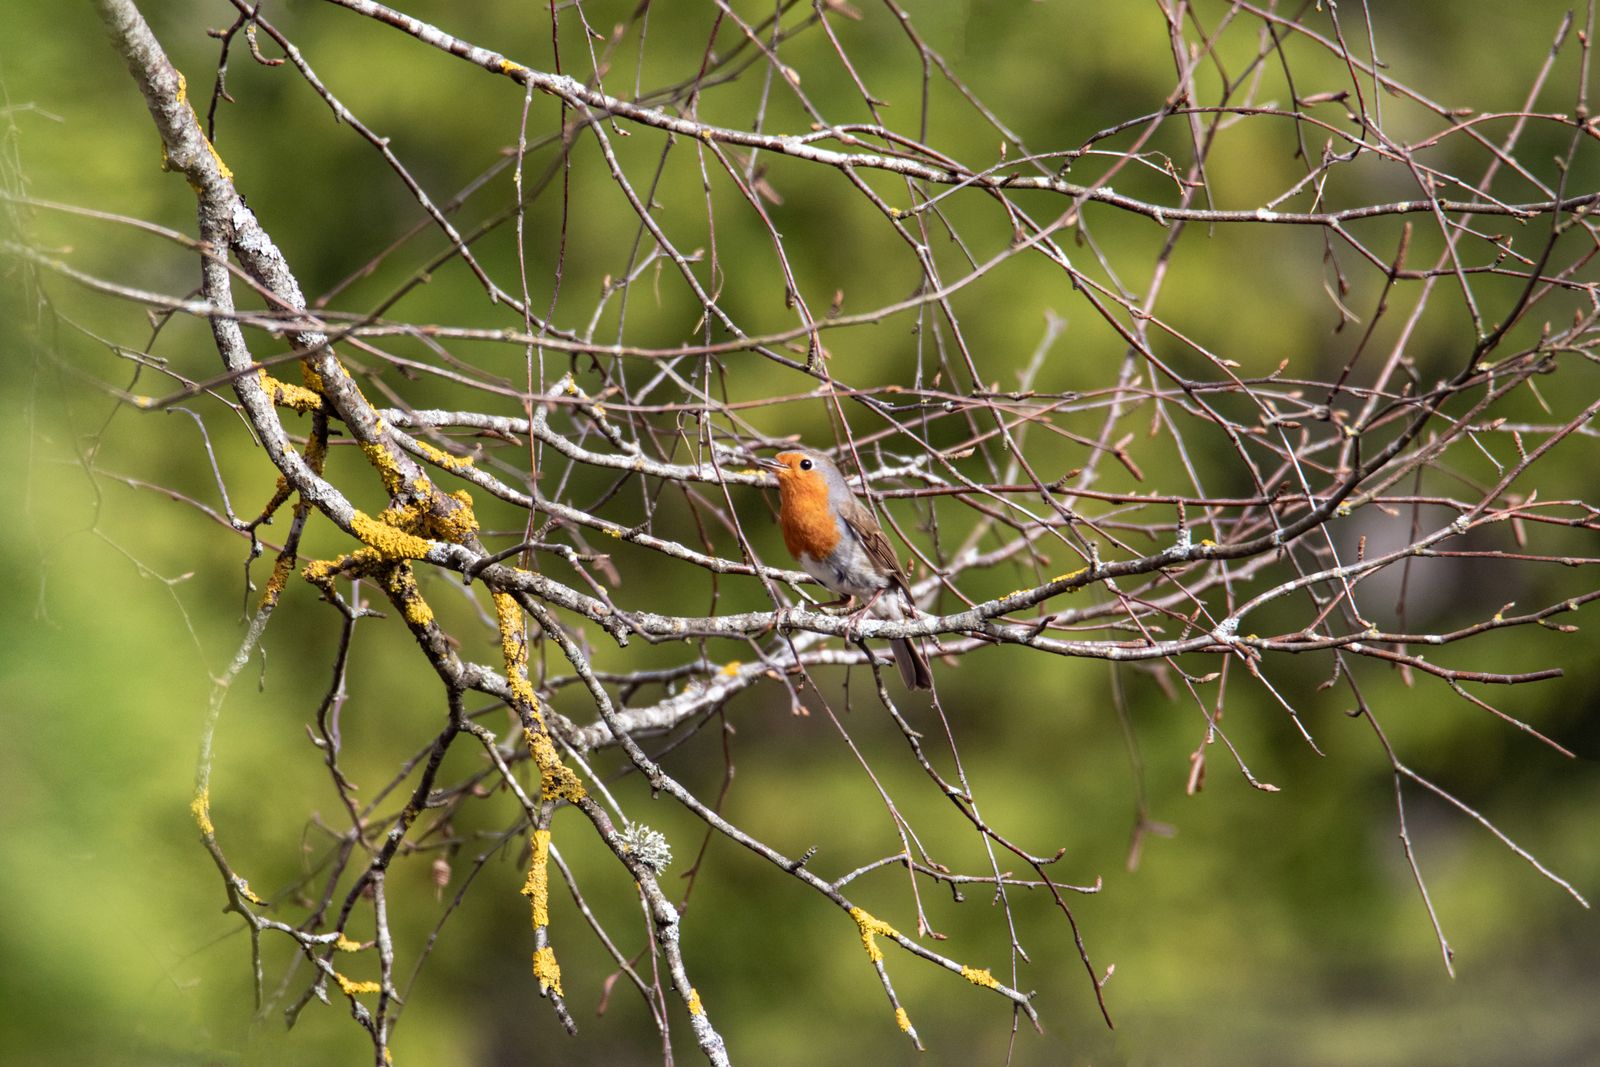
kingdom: Animalia
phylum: Chordata
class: Aves
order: Passeriformes
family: Muscicapidae
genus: Erithacus
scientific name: Erithacus rubecula
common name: European robin
